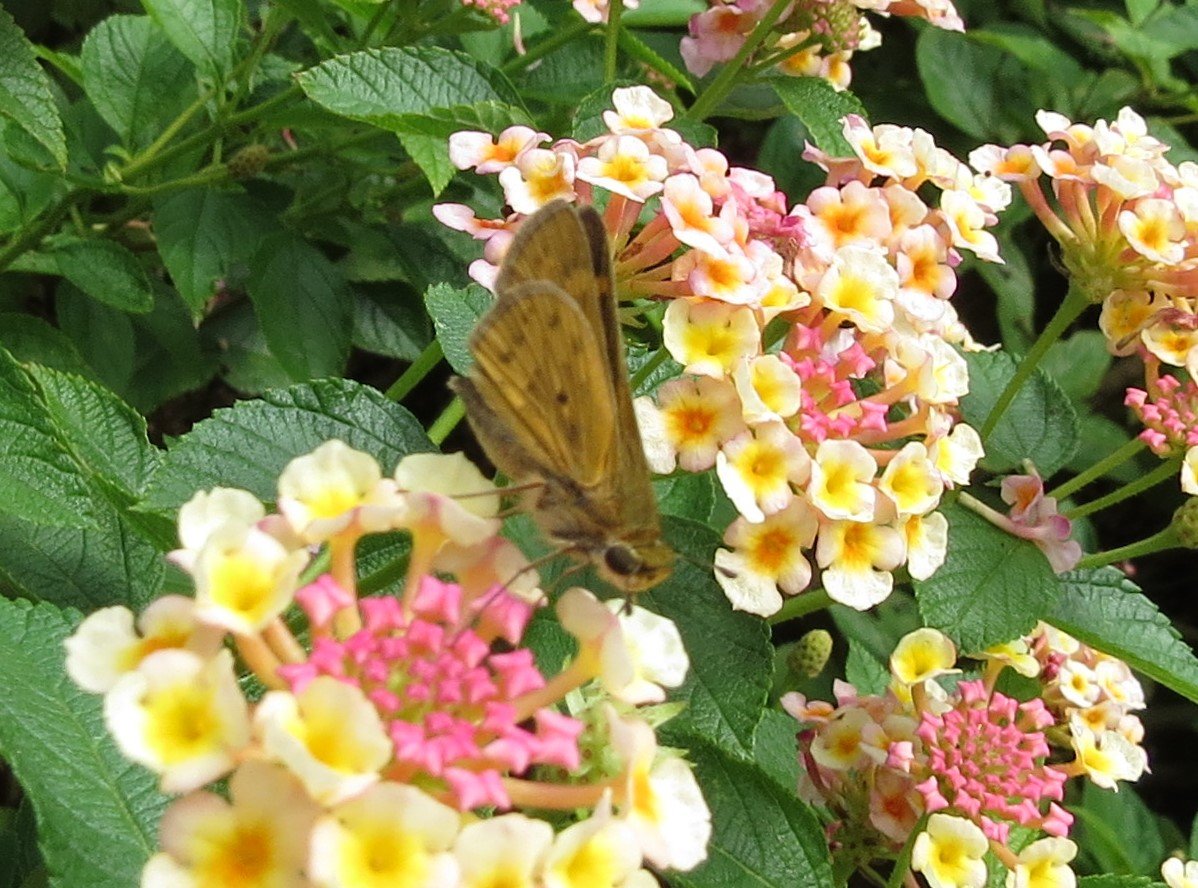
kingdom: Animalia
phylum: Arthropoda
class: Insecta
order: Lepidoptera
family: Hesperiidae
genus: Hylephila
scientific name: Hylephila phyleus
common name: Fiery Skipper
